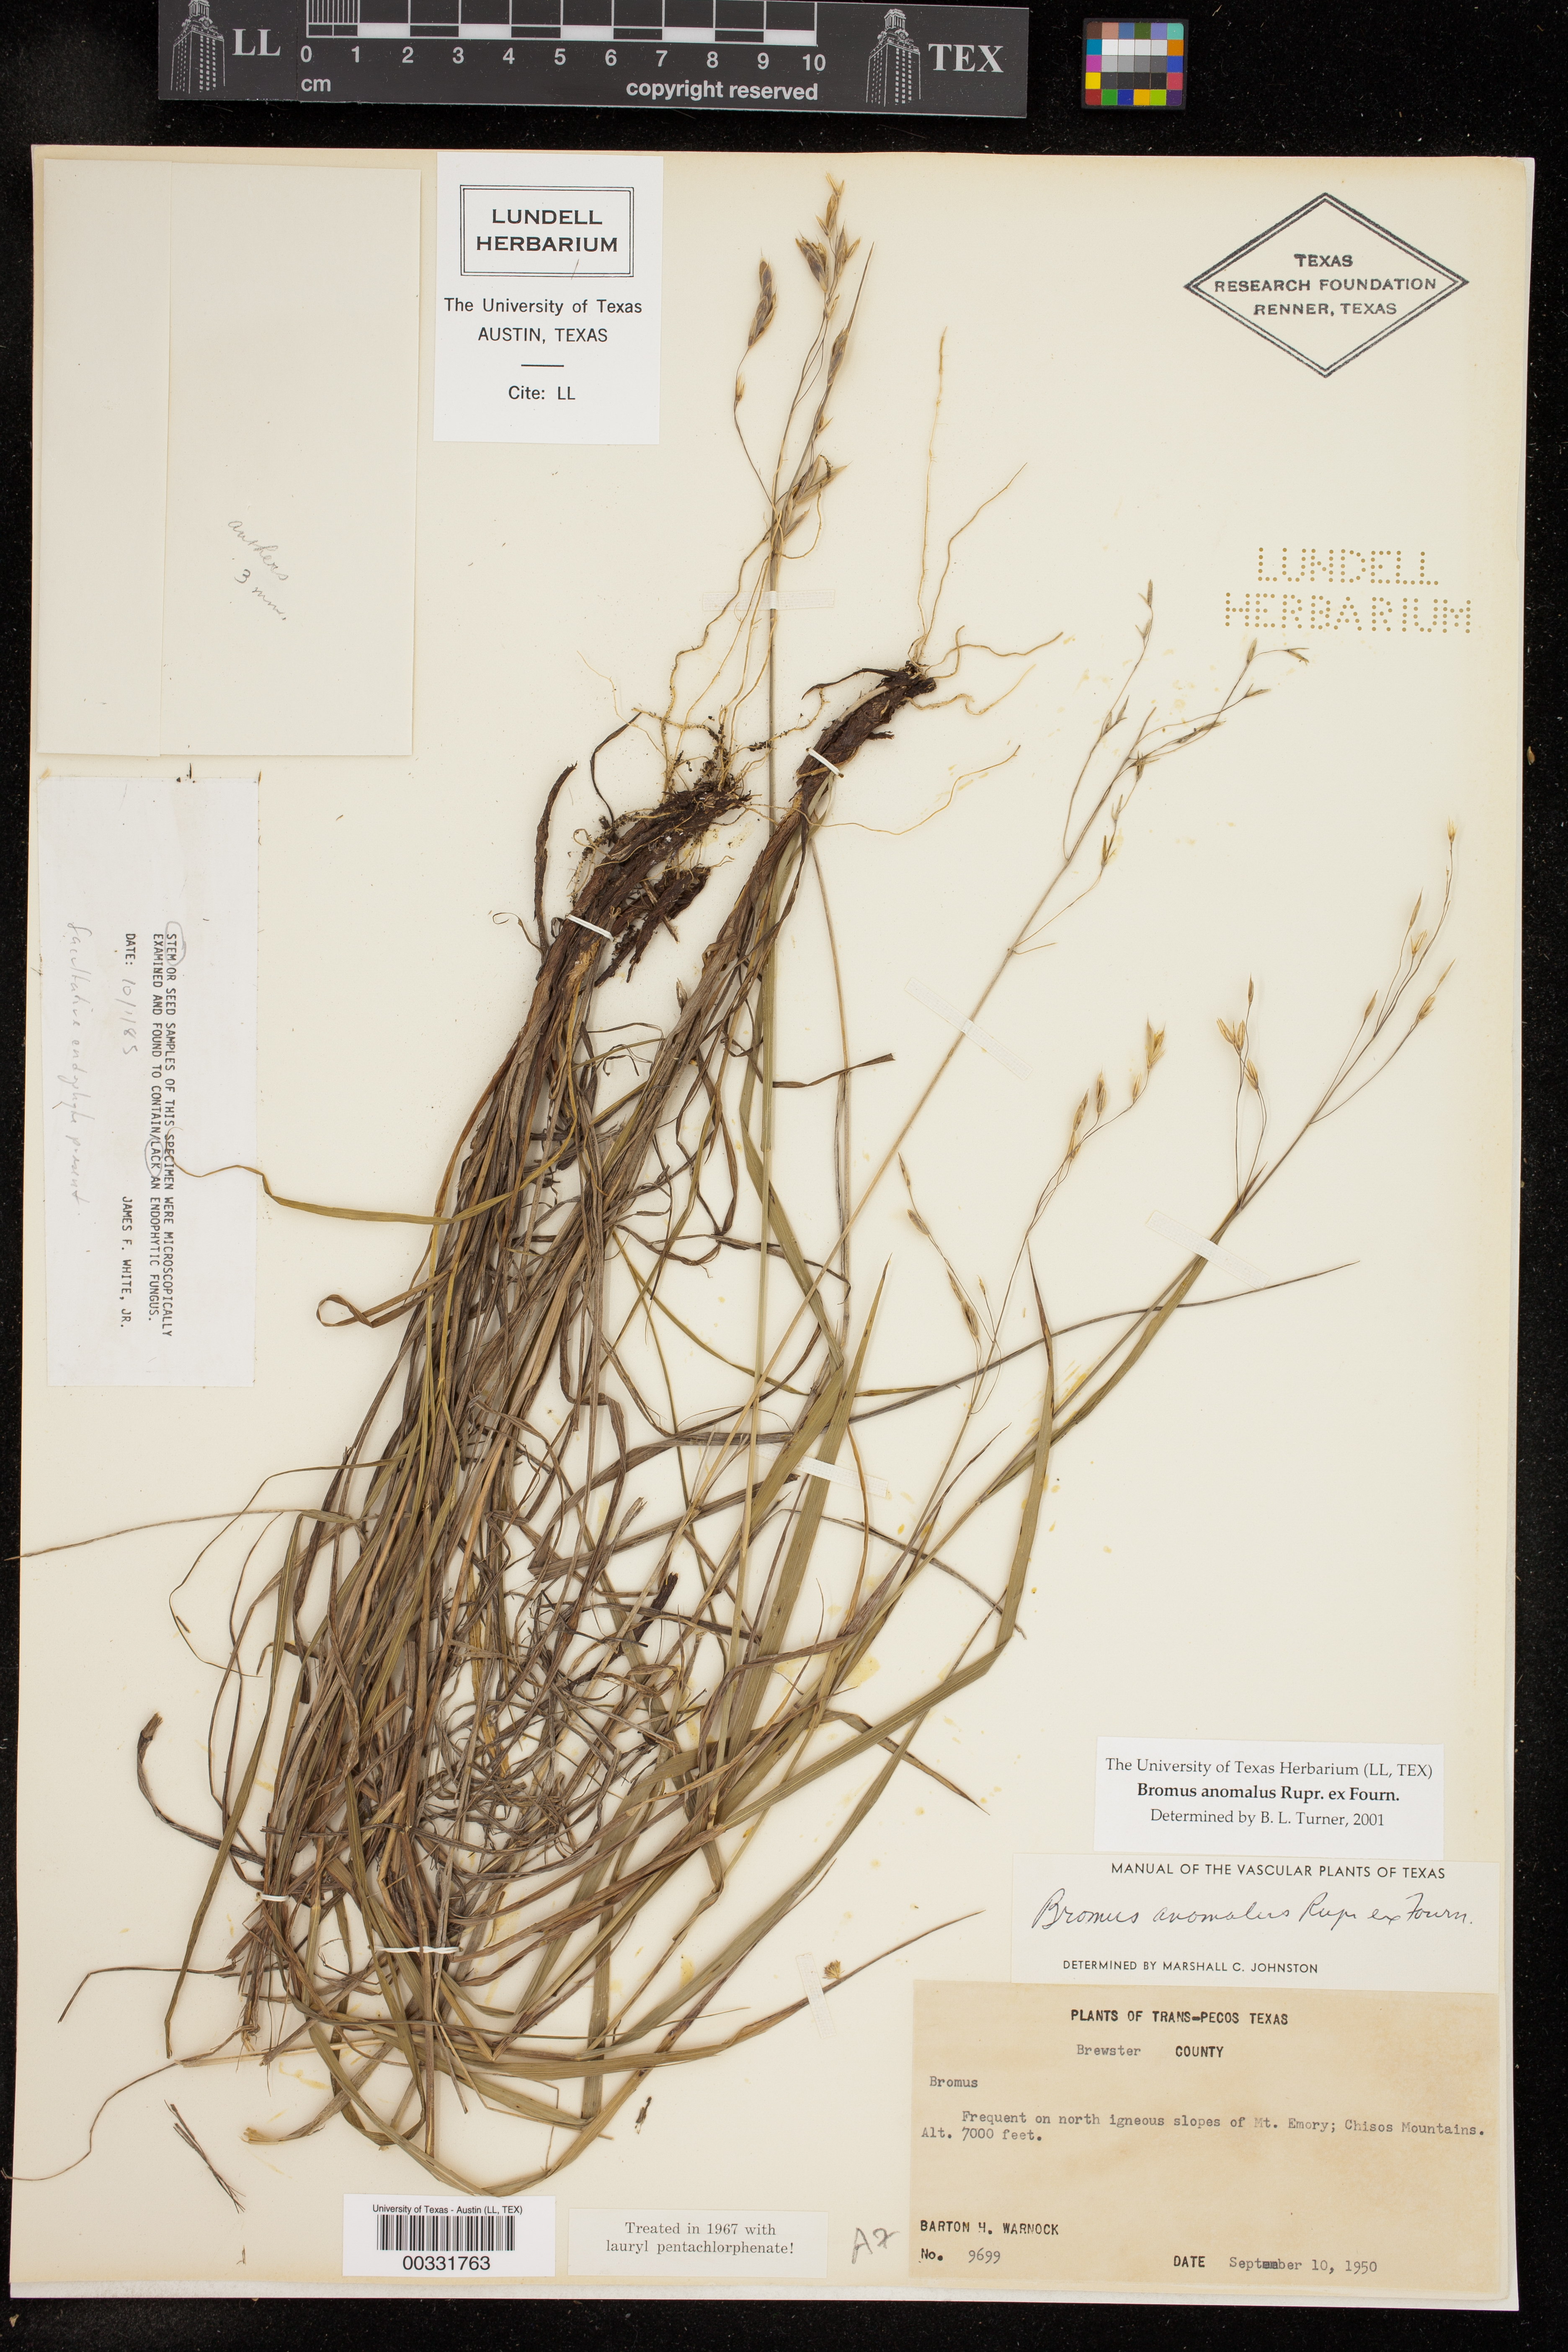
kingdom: Plantae
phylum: Tracheophyta
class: Liliopsida
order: Poales
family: Poaceae
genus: Bromus
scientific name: Bromus anomalus
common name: Nodding brome
